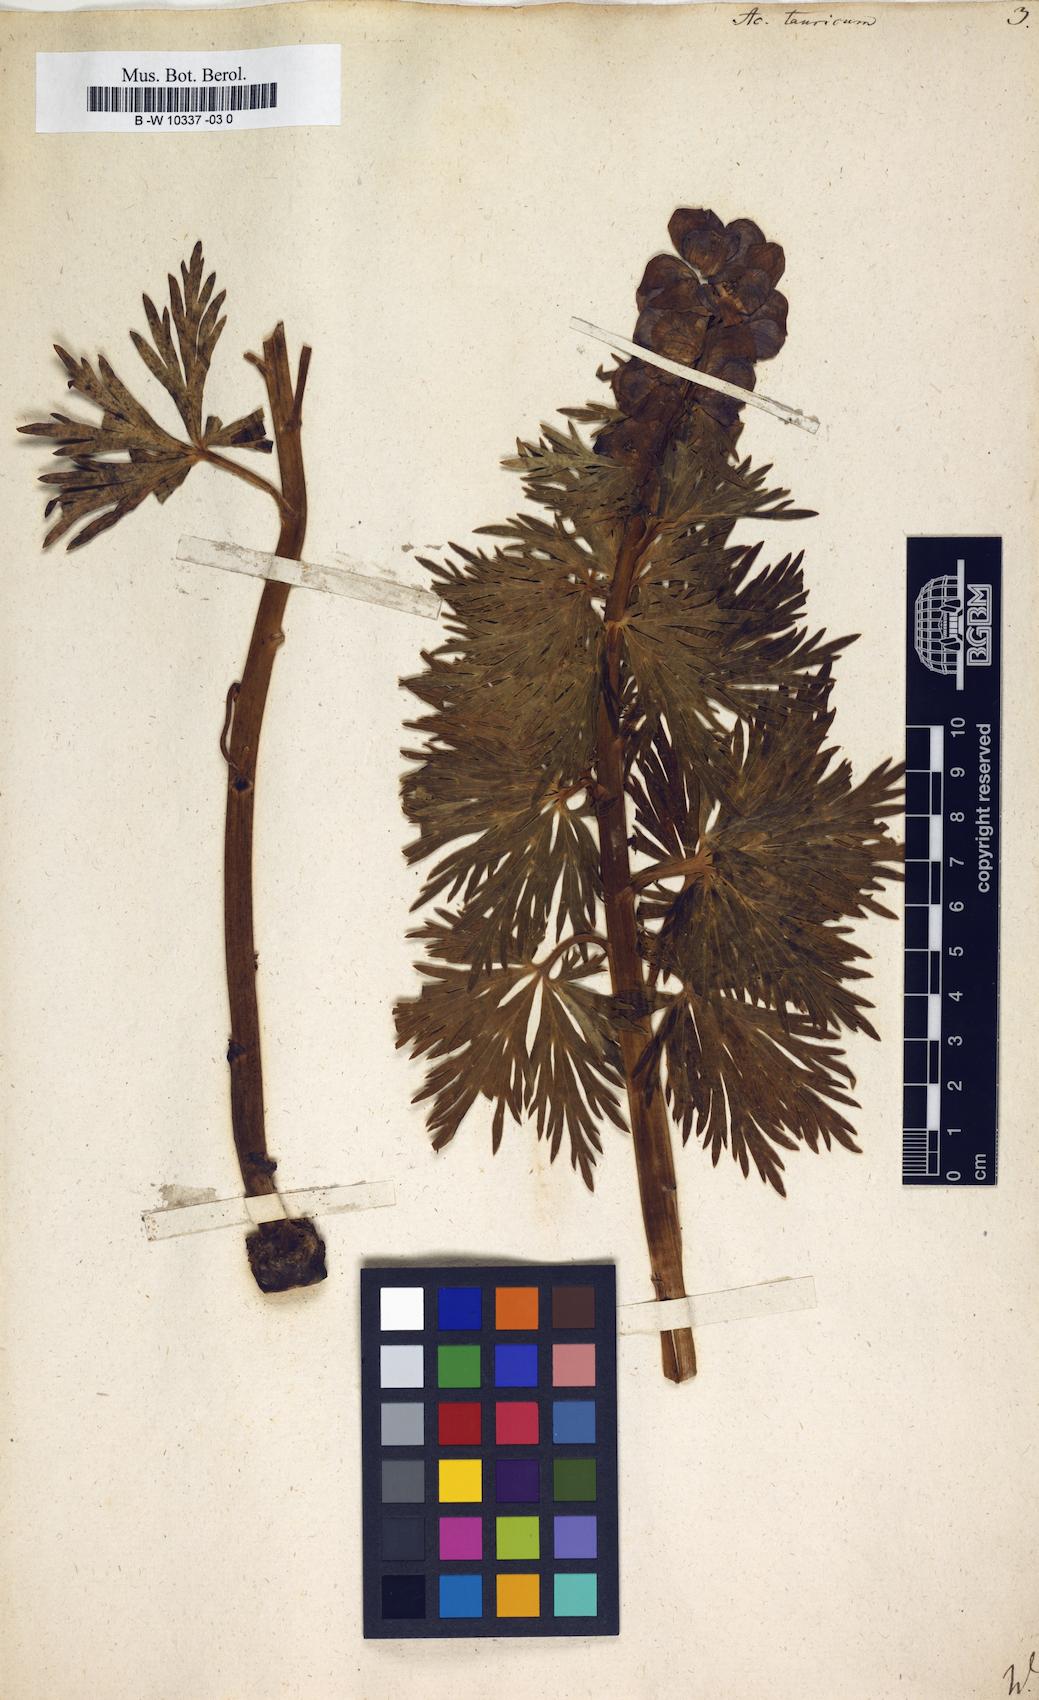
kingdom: Plantae
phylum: Tracheophyta
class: Magnoliopsida
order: Ranunculales
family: Ranunculaceae
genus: Aconitum
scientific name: Aconitum tauricum
